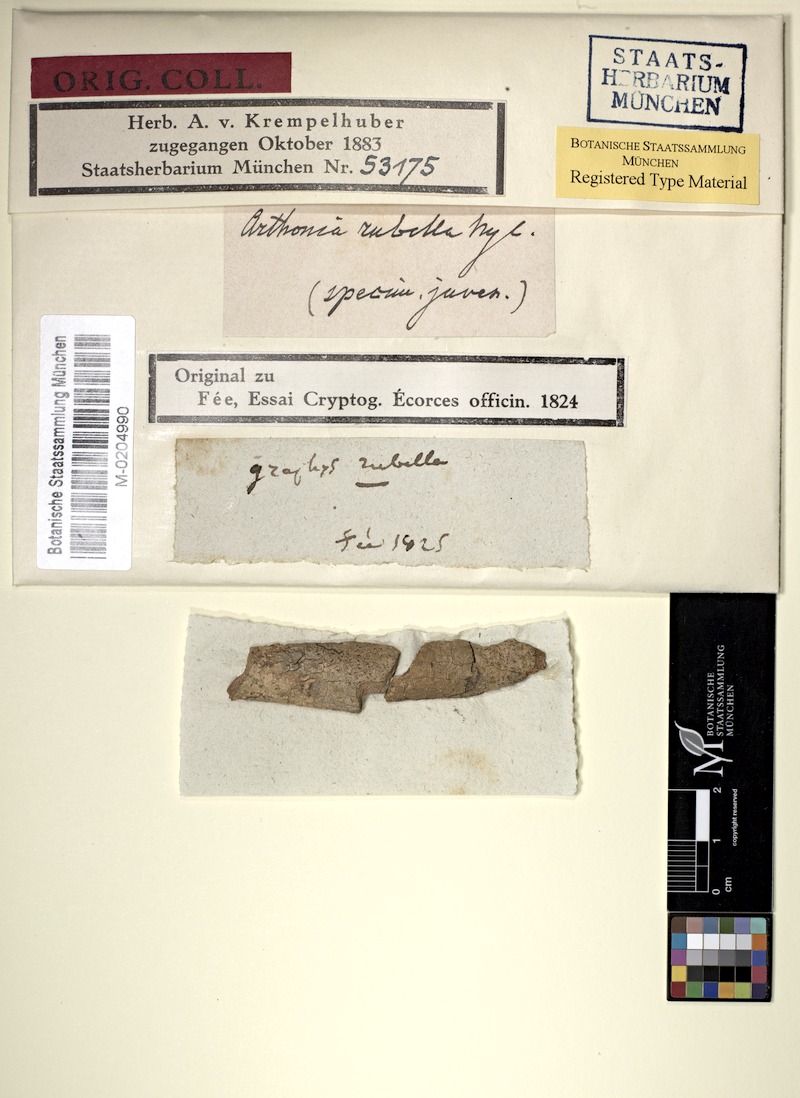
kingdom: Fungi
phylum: Ascomycota
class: Arthoniomycetes
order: Arthoniales
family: Arthoniaceae
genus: Arthonia
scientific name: Arthonia rubella
